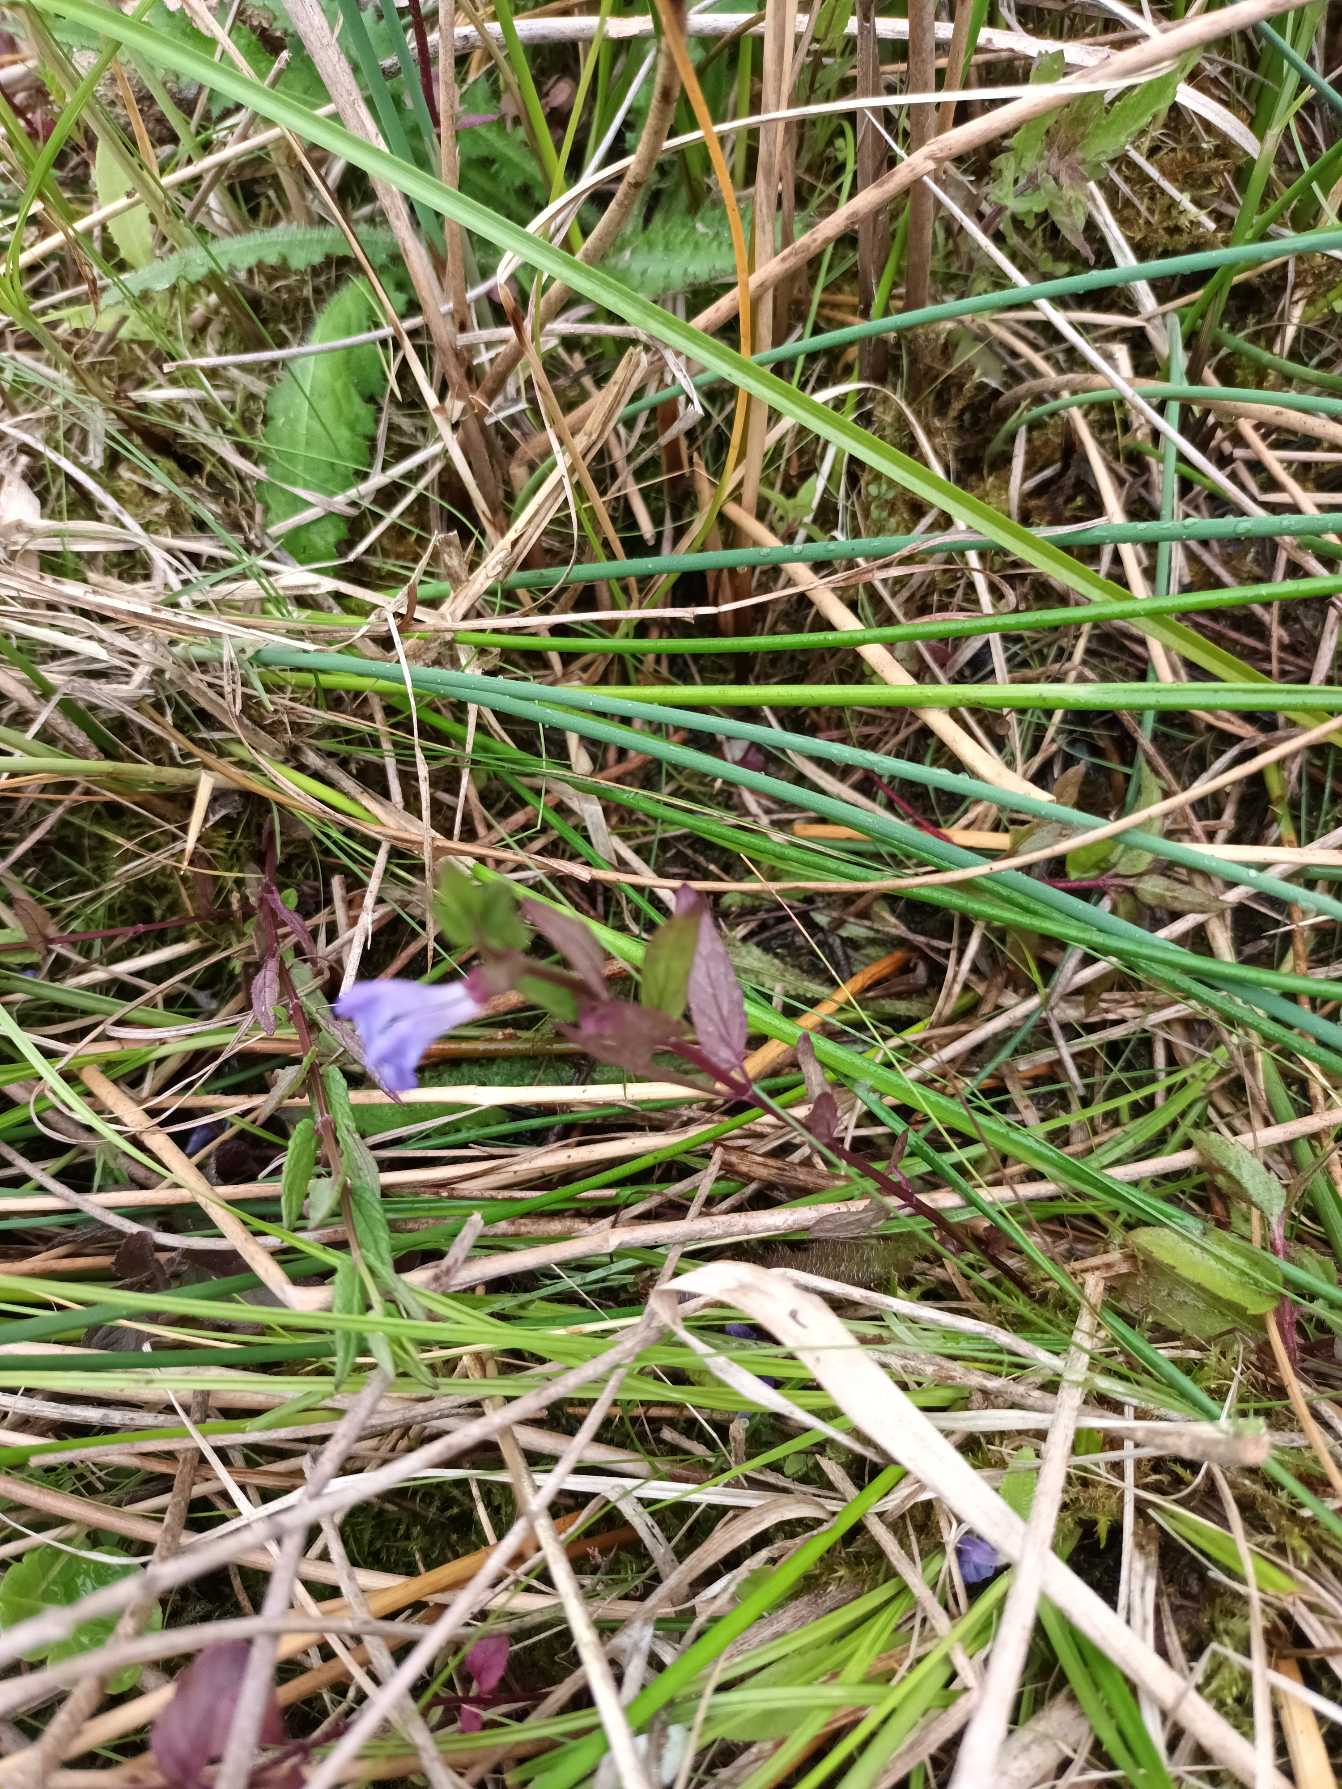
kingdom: Plantae
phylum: Tracheophyta
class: Magnoliopsida
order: Lamiales
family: Lamiaceae
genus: Scutellaria
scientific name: Scutellaria galericulata
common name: Almindelig skjolddrager
